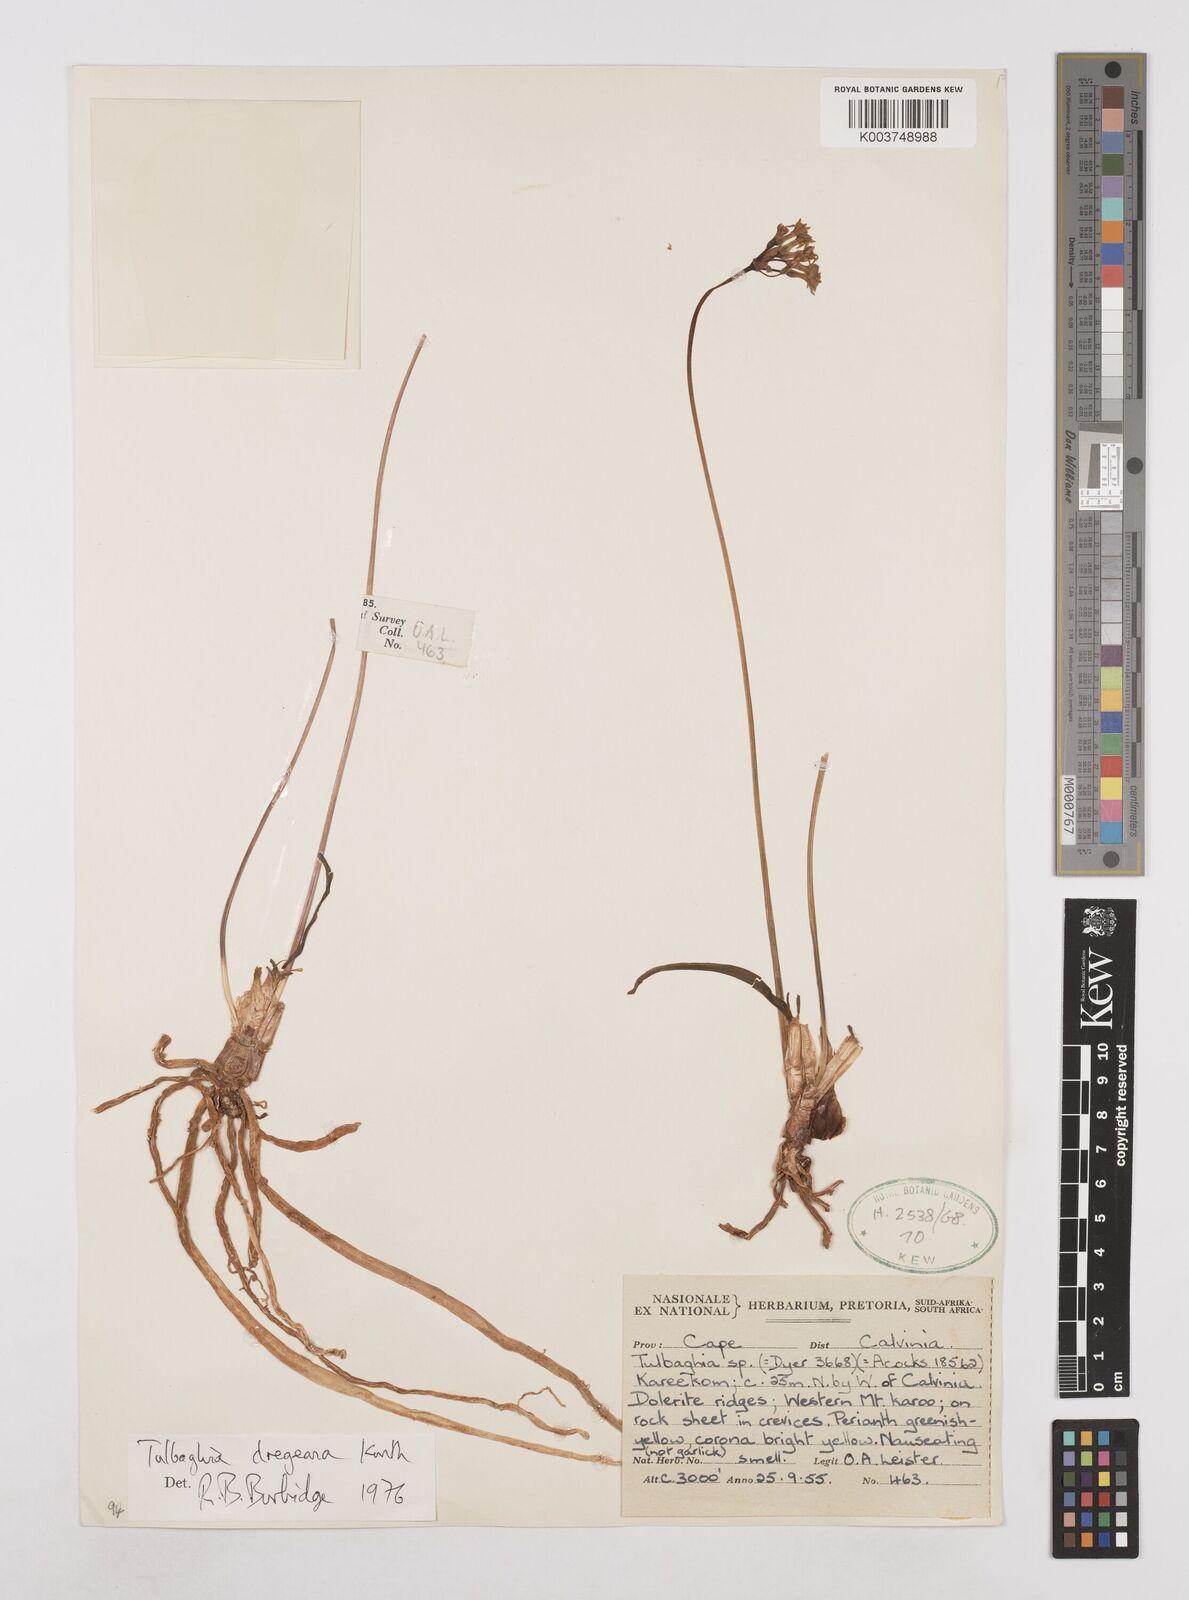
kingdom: Plantae
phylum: Tracheophyta
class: Liliopsida
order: Asparagales
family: Amaryllidaceae
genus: Tulbaghia
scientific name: Tulbaghia dregeana
